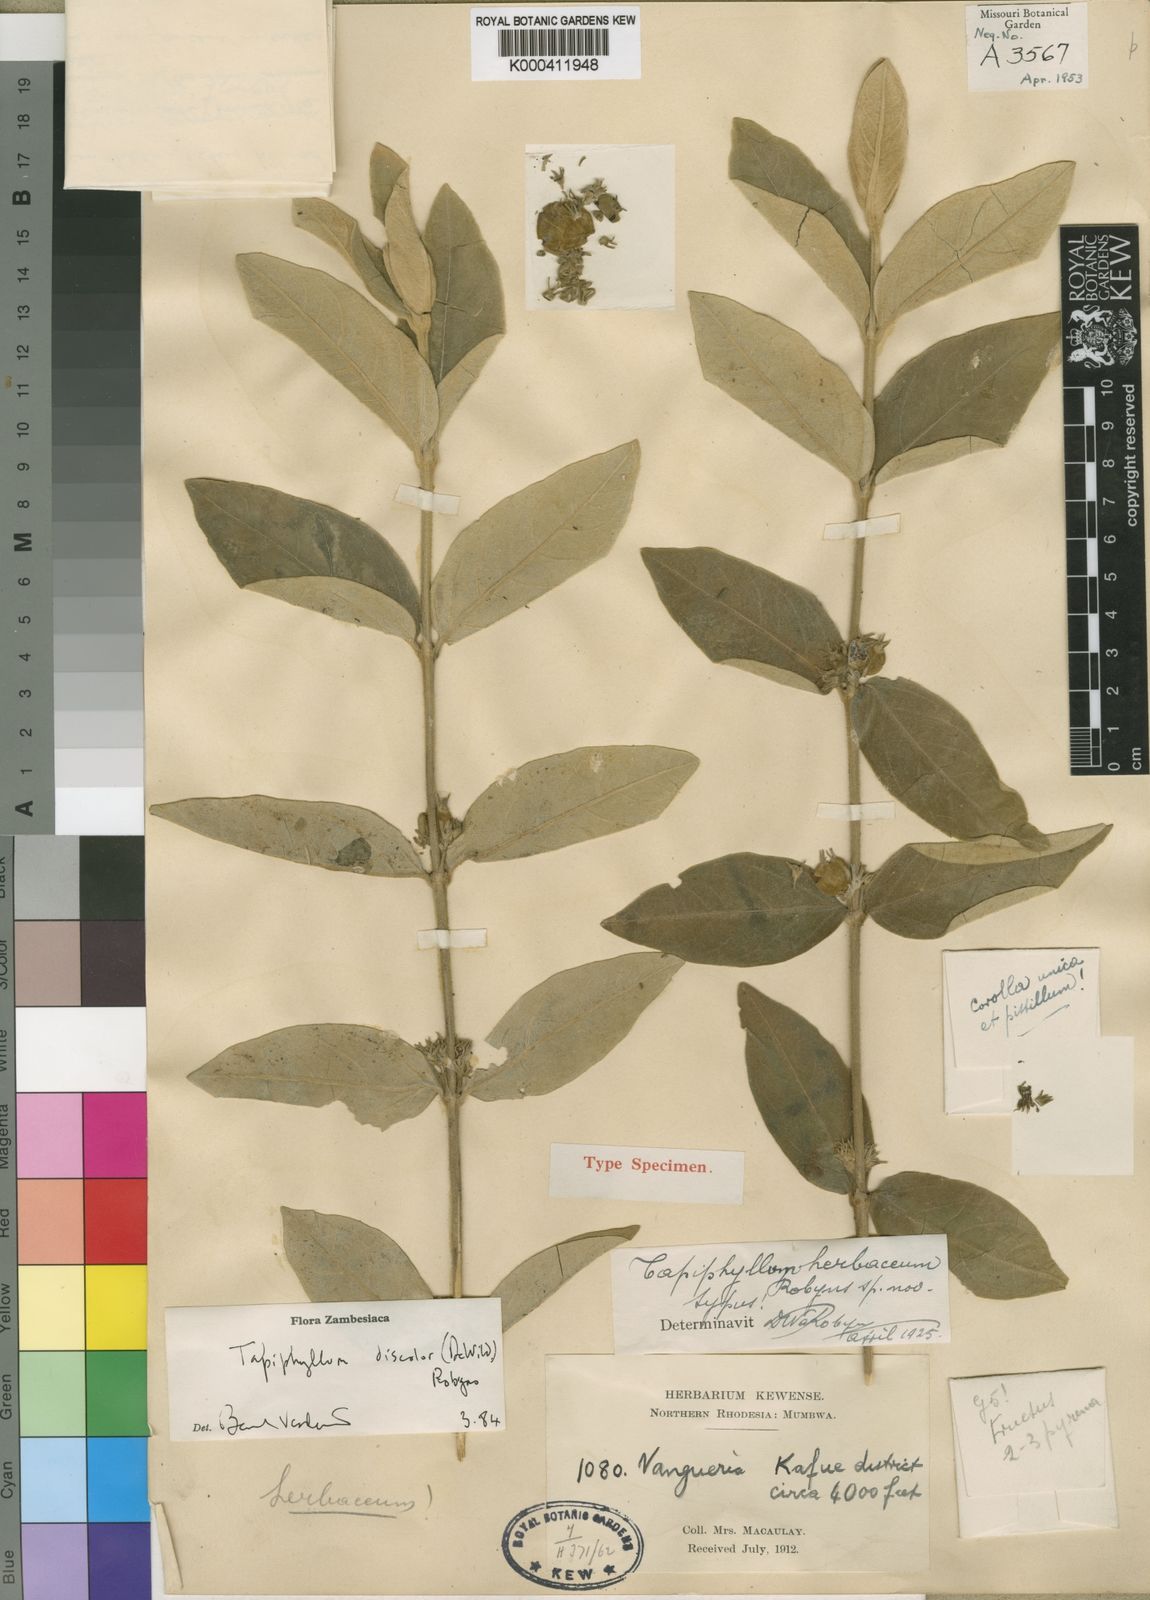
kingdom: Plantae
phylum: Tracheophyta
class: Magnoliopsida
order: Gentianales
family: Rubiaceae
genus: Vangueria
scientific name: Vangueria discolor
